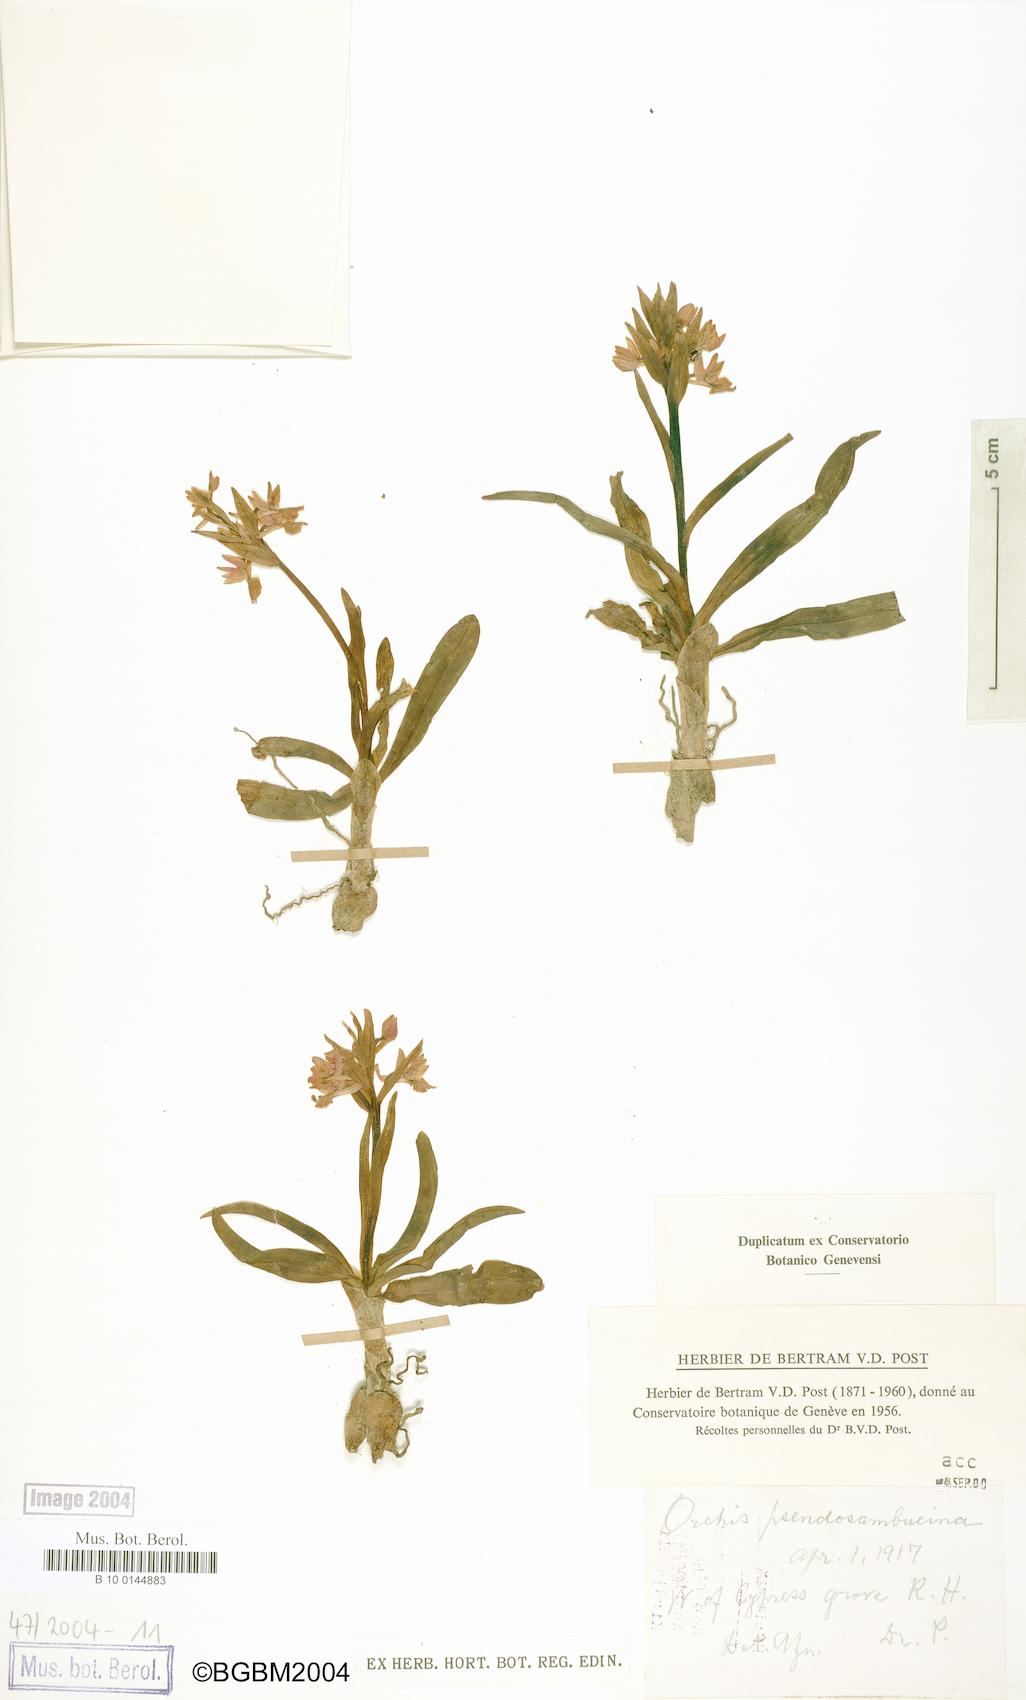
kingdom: Plantae
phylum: Tracheophyta
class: Liliopsida
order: Asparagales
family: Orchidaceae
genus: Dactylorhiza
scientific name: Dactylorhiza romana
